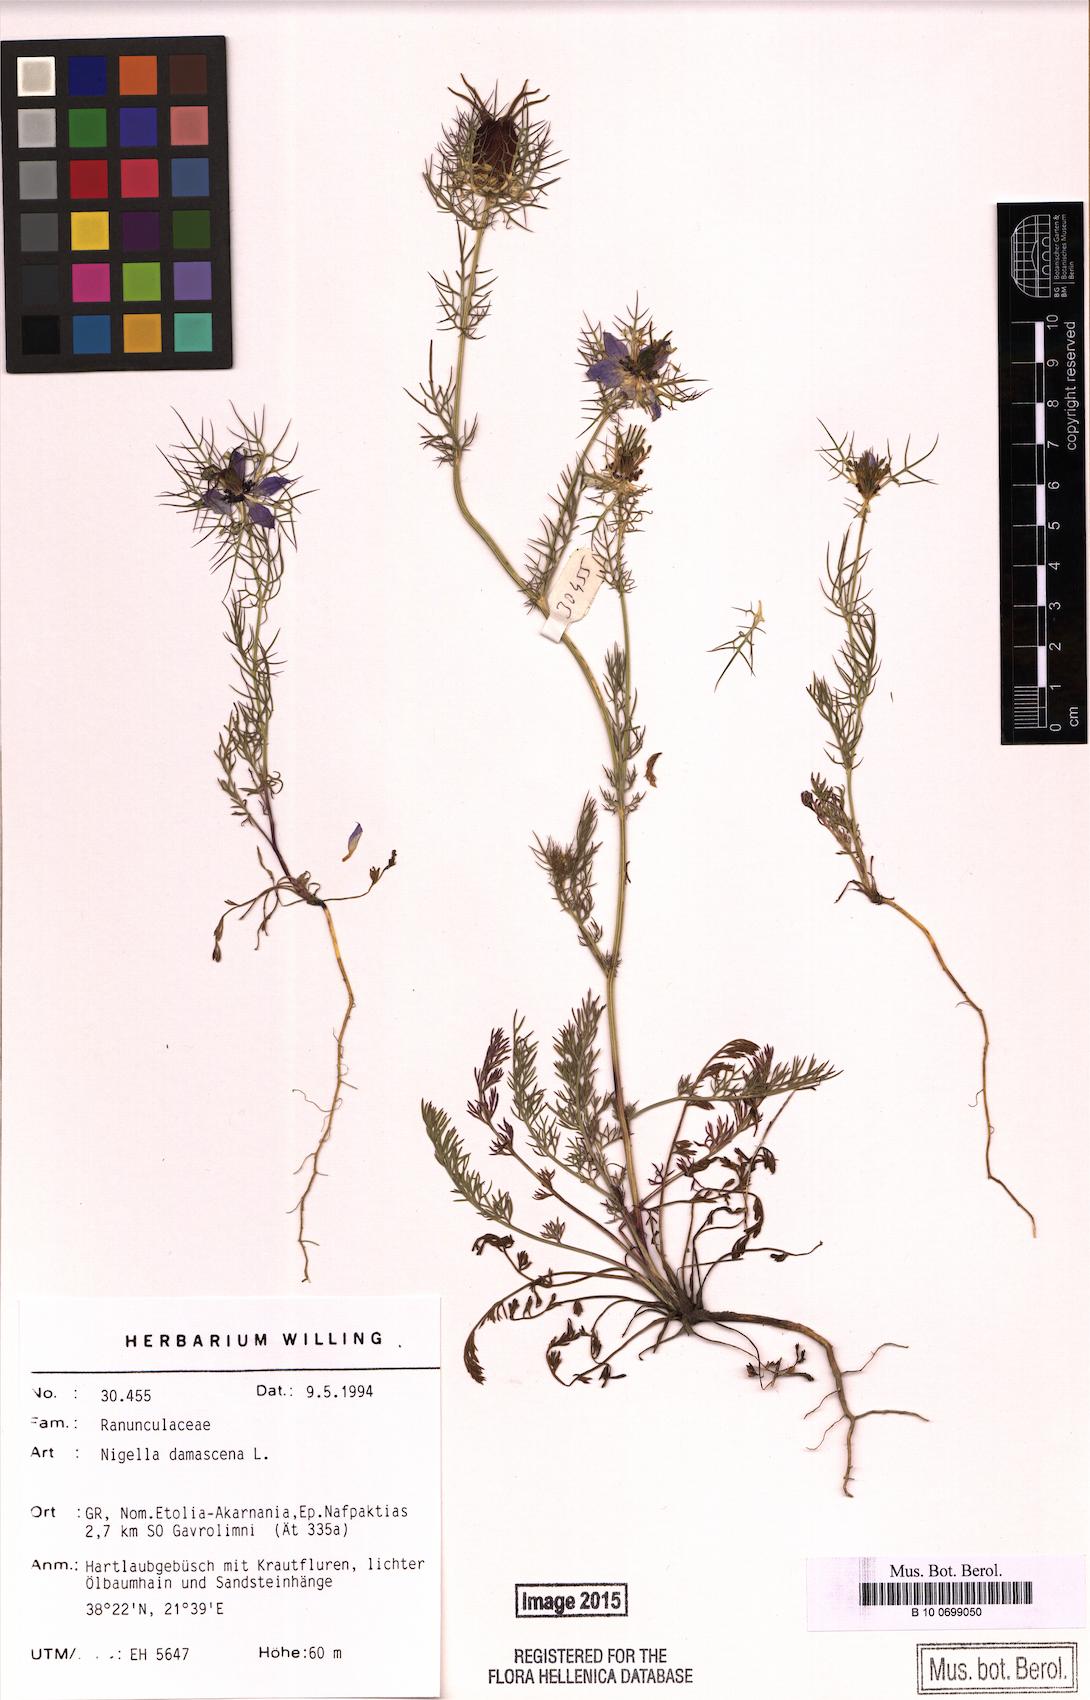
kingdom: Plantae
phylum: Tracheophyta
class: Magnoliopsida
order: Ranunculales
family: Ranunculaceae
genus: Nigella
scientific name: Nigella damascena
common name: Love-in-a-mist
